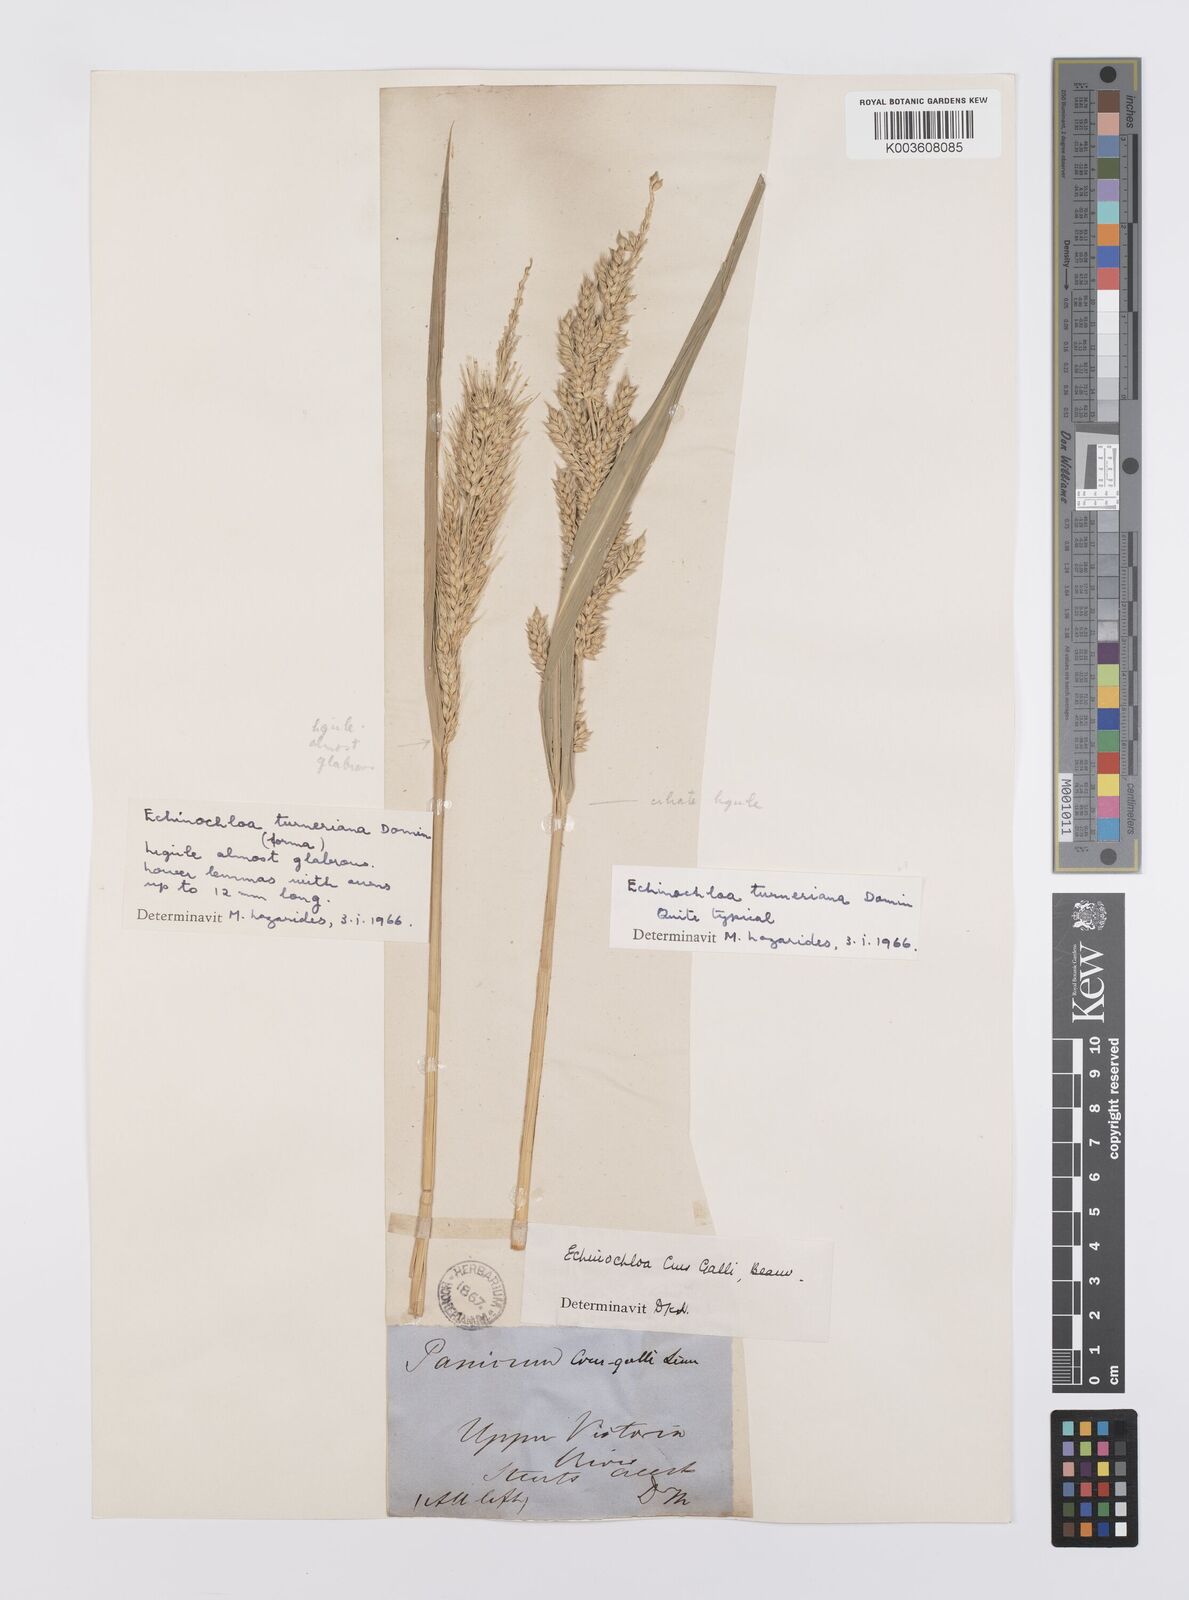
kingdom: Plantae
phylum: Tracheophyta
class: Liliopsida
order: Poales
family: Poaceae
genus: Echinochloa
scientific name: Echinochloa turneriana
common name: Channel millet
